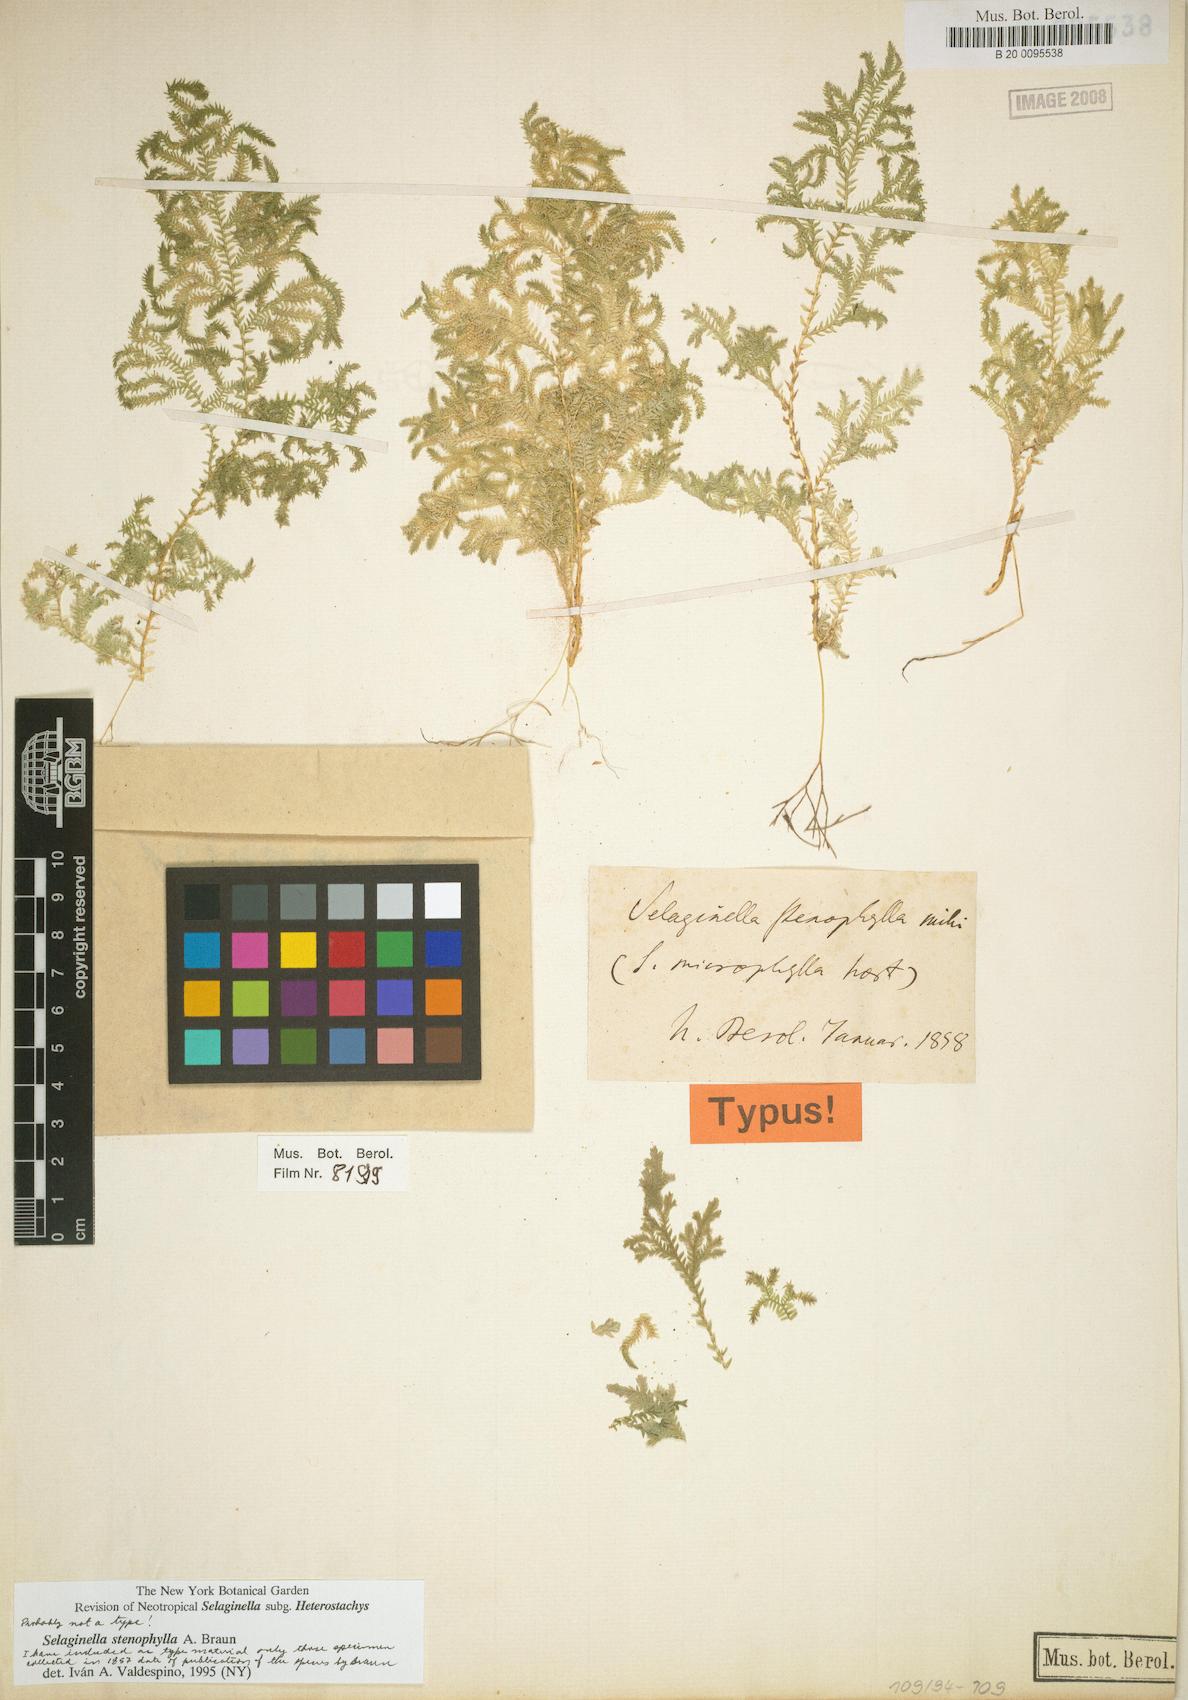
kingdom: Plantae
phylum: Tracheophyta
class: Lycopodiopsida
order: Selaginellales
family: Selaginellaceae
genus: Selaginella
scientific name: Selaginella stenophylla
